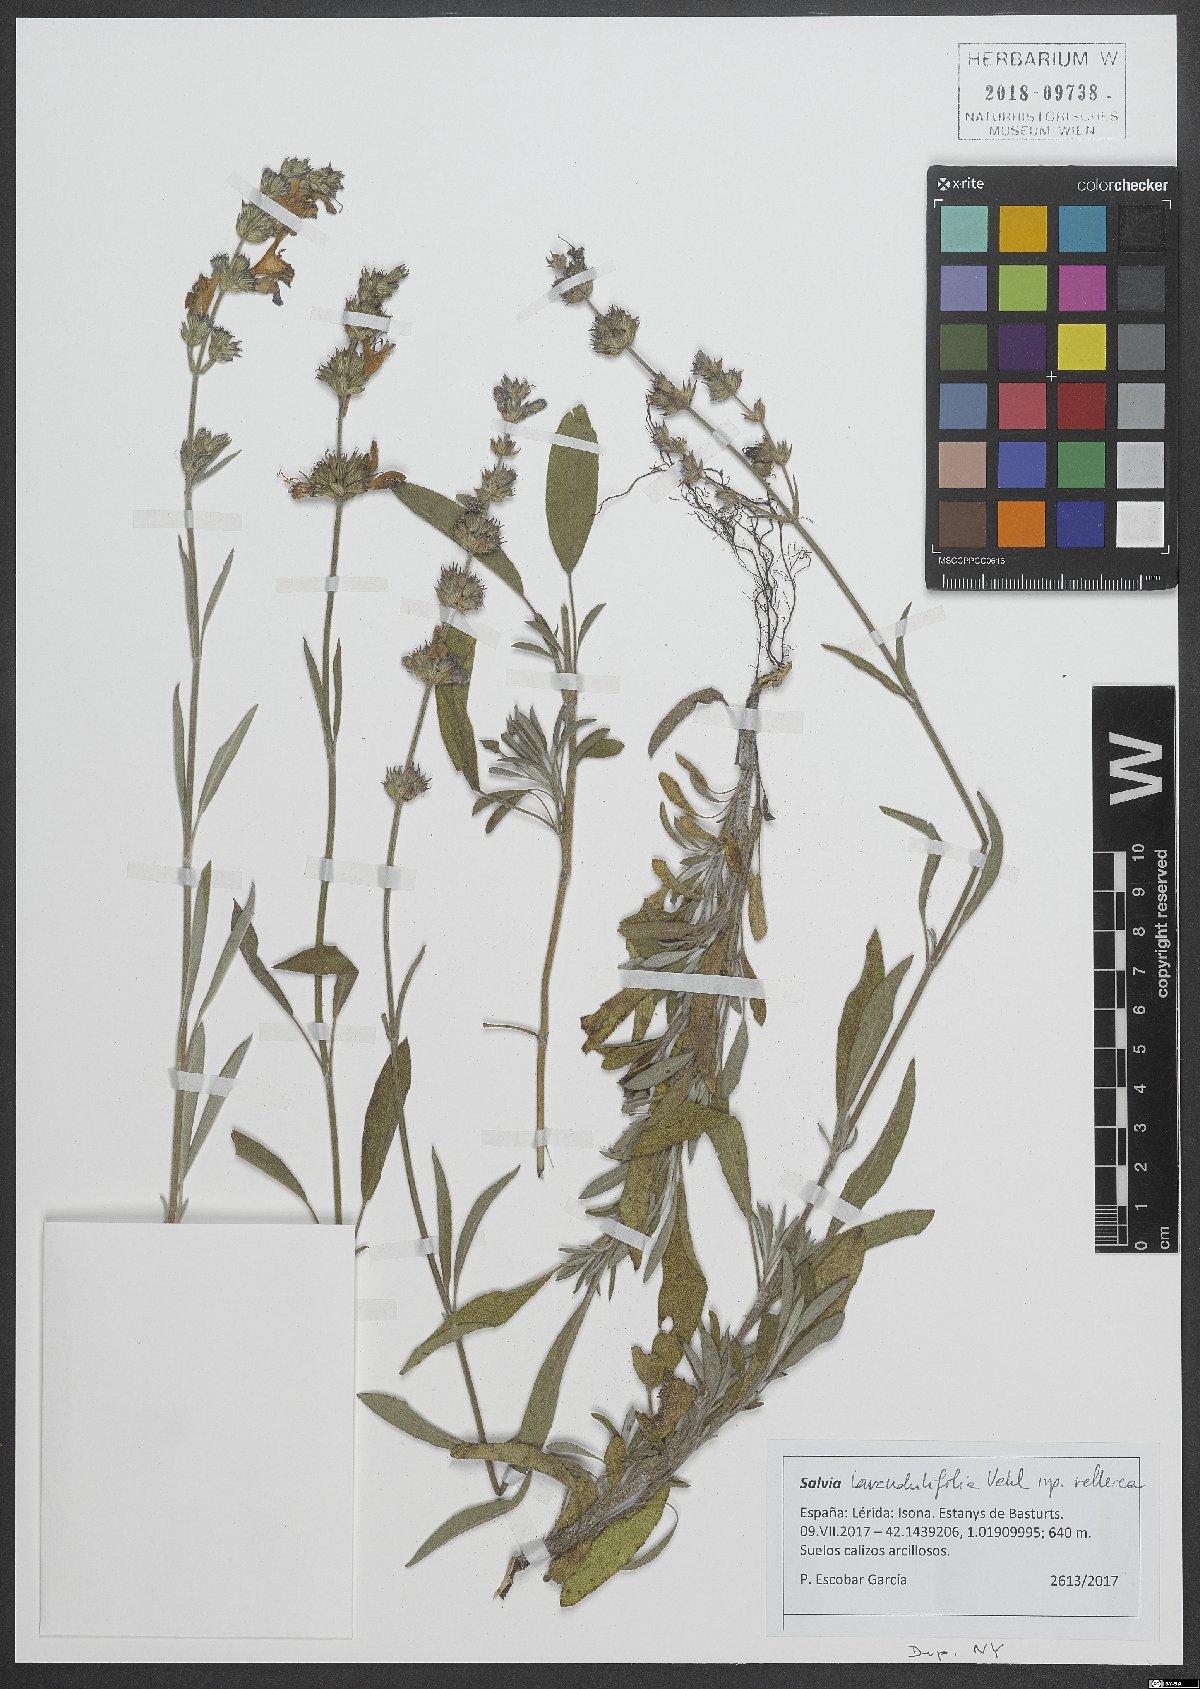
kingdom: Plantae
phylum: Tracheophyta
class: Magnoliopsida
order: Lamiales
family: Lamiaceae
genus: Salvia
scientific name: Salvia blancoana
